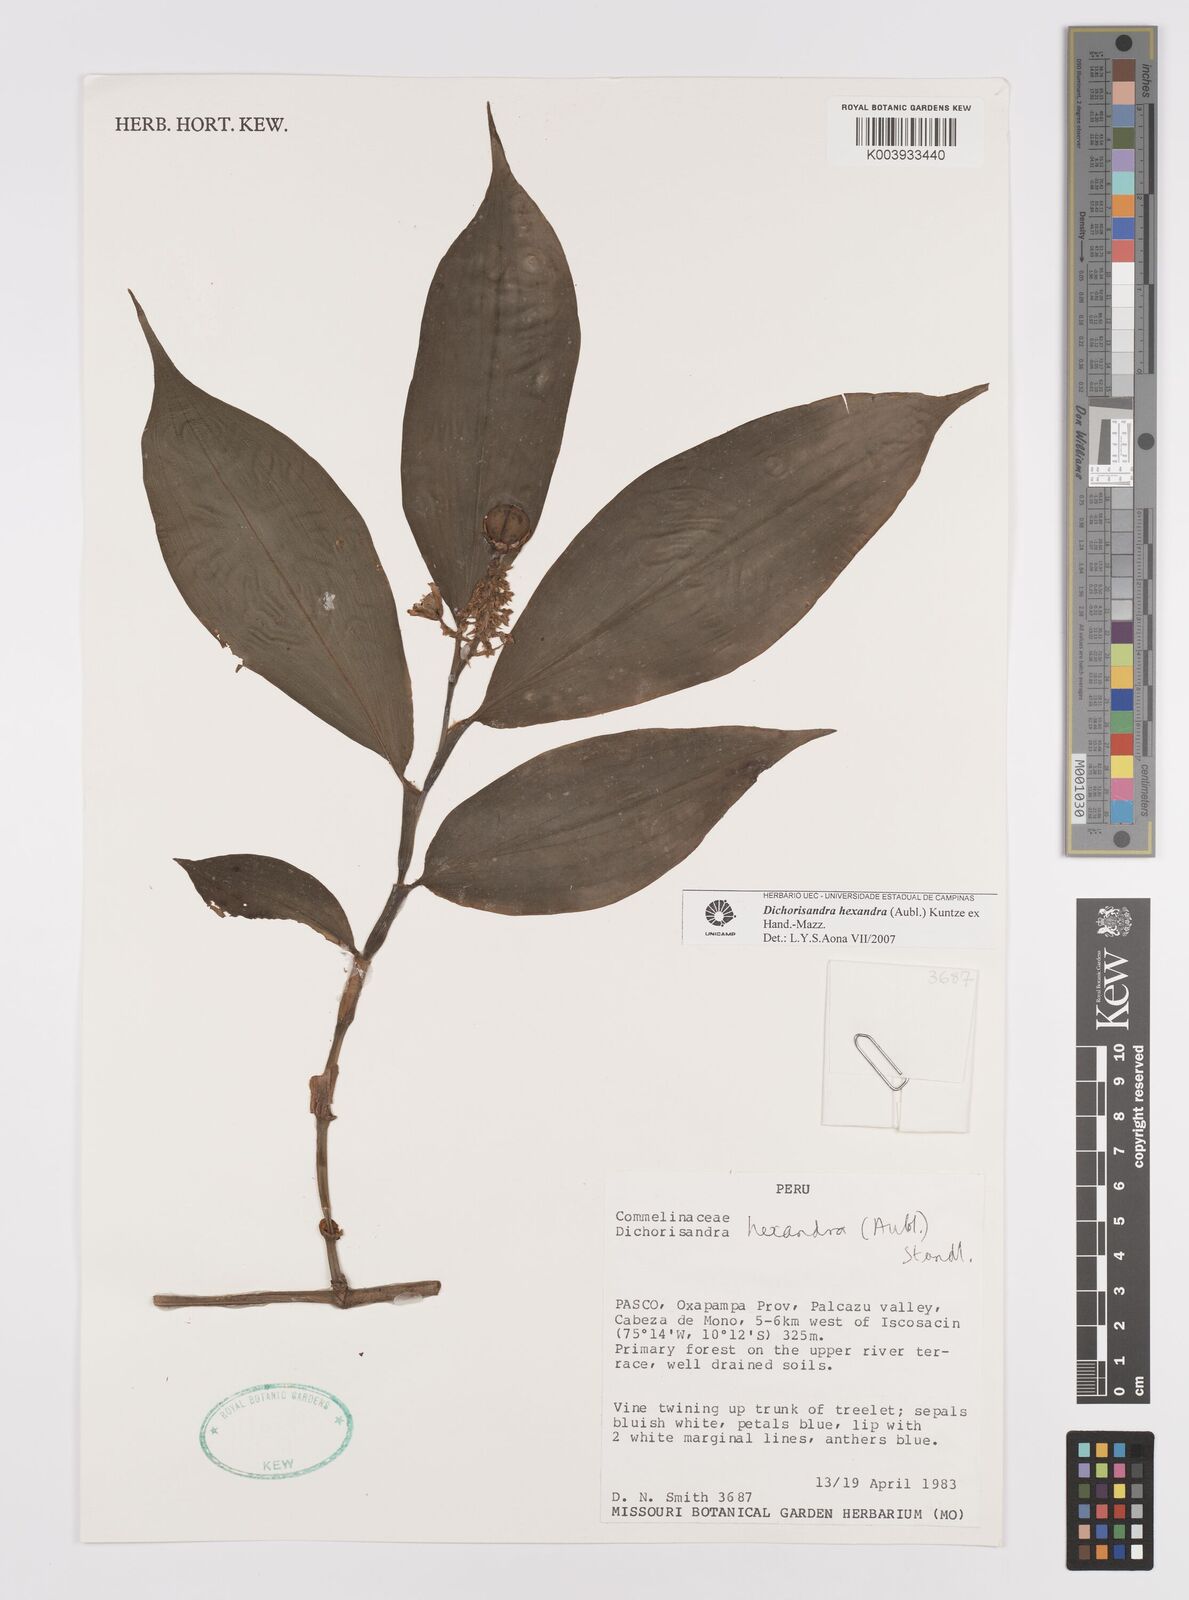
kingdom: Plantae
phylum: Tracheophyta
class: Liliopsida
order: Commelinales
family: Commelinaceae
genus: Dichorisandra
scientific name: Dichorisandra hexandra
